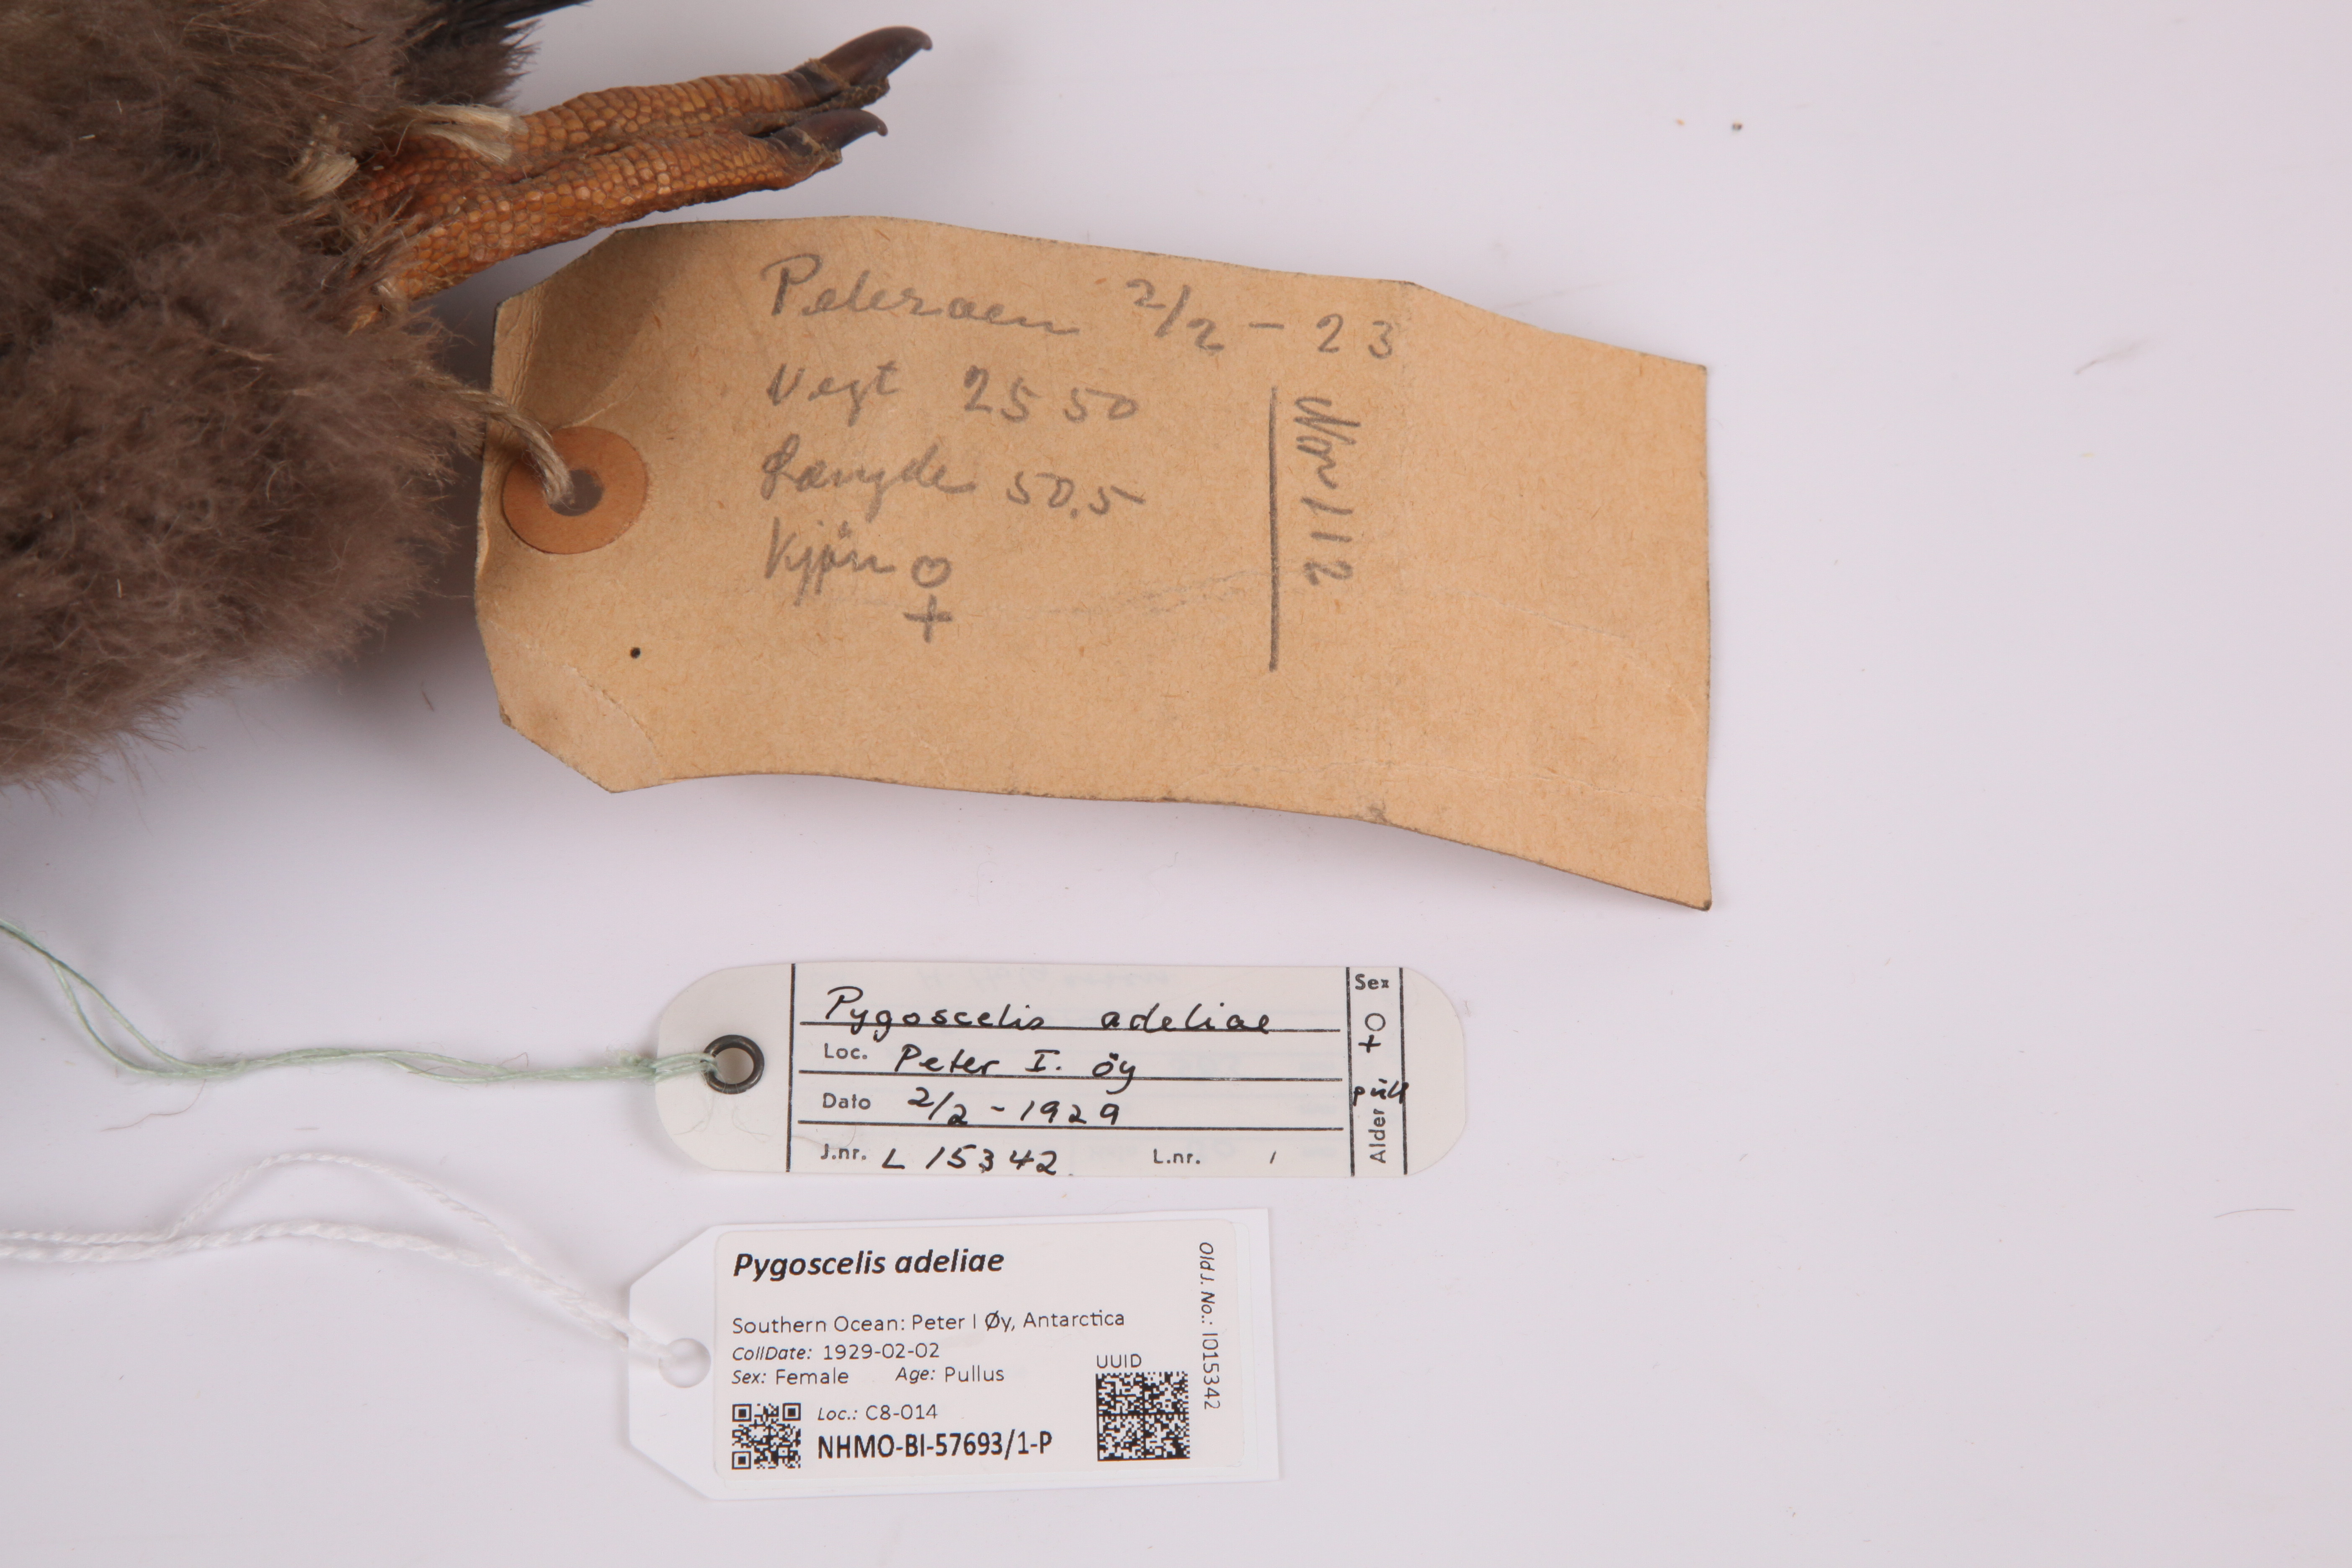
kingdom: Animalia
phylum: Chordata
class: Aves
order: Sphenisciformes
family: Spheniscidae
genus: Pygoscelis
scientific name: Pygoscelis adeliae
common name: Adelie penguin
